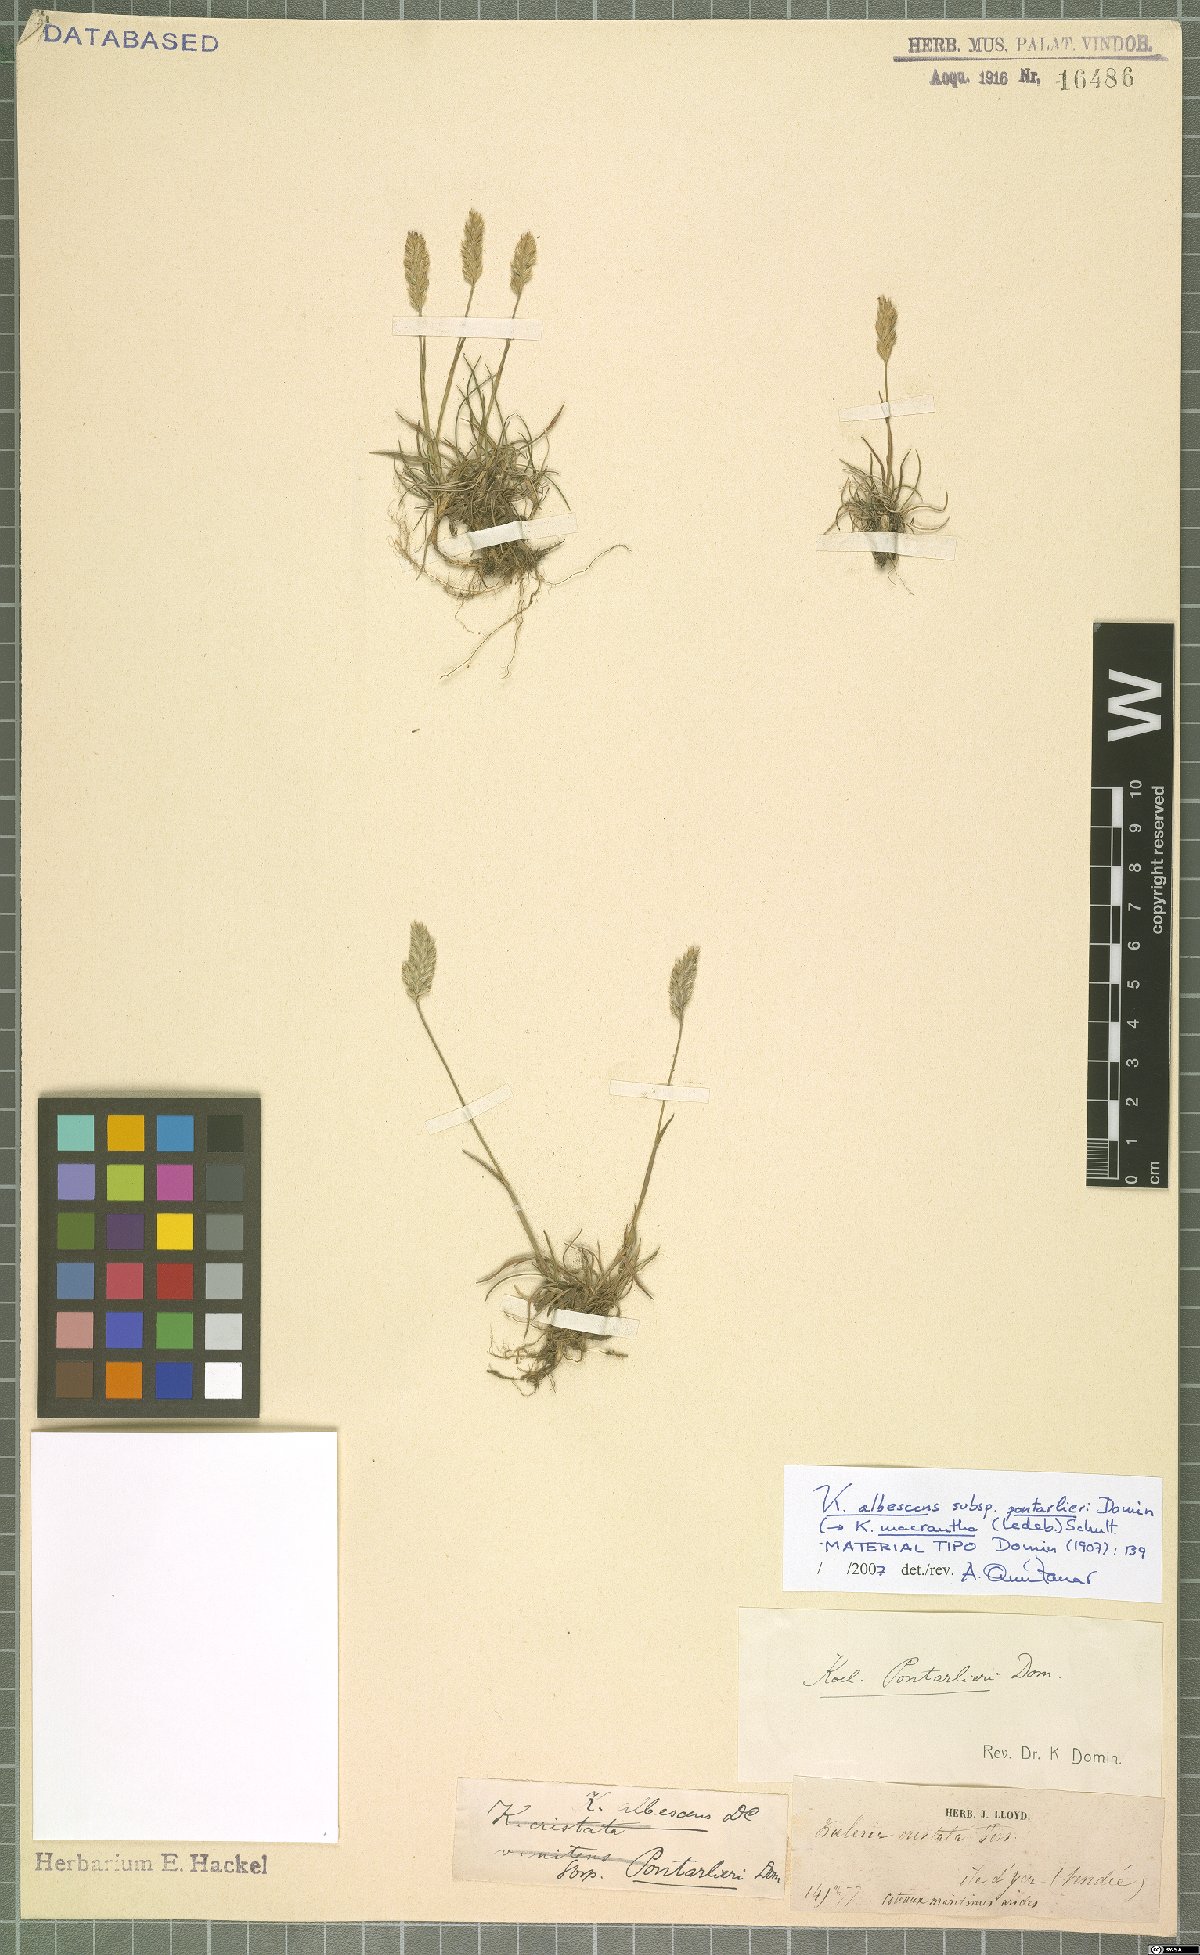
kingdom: Plantae
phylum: Tracheophyta
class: Liliopsida
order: Poales
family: Poaceae
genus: Koeleria
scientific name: Koeleria macrantha
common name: Crested hair-grass
